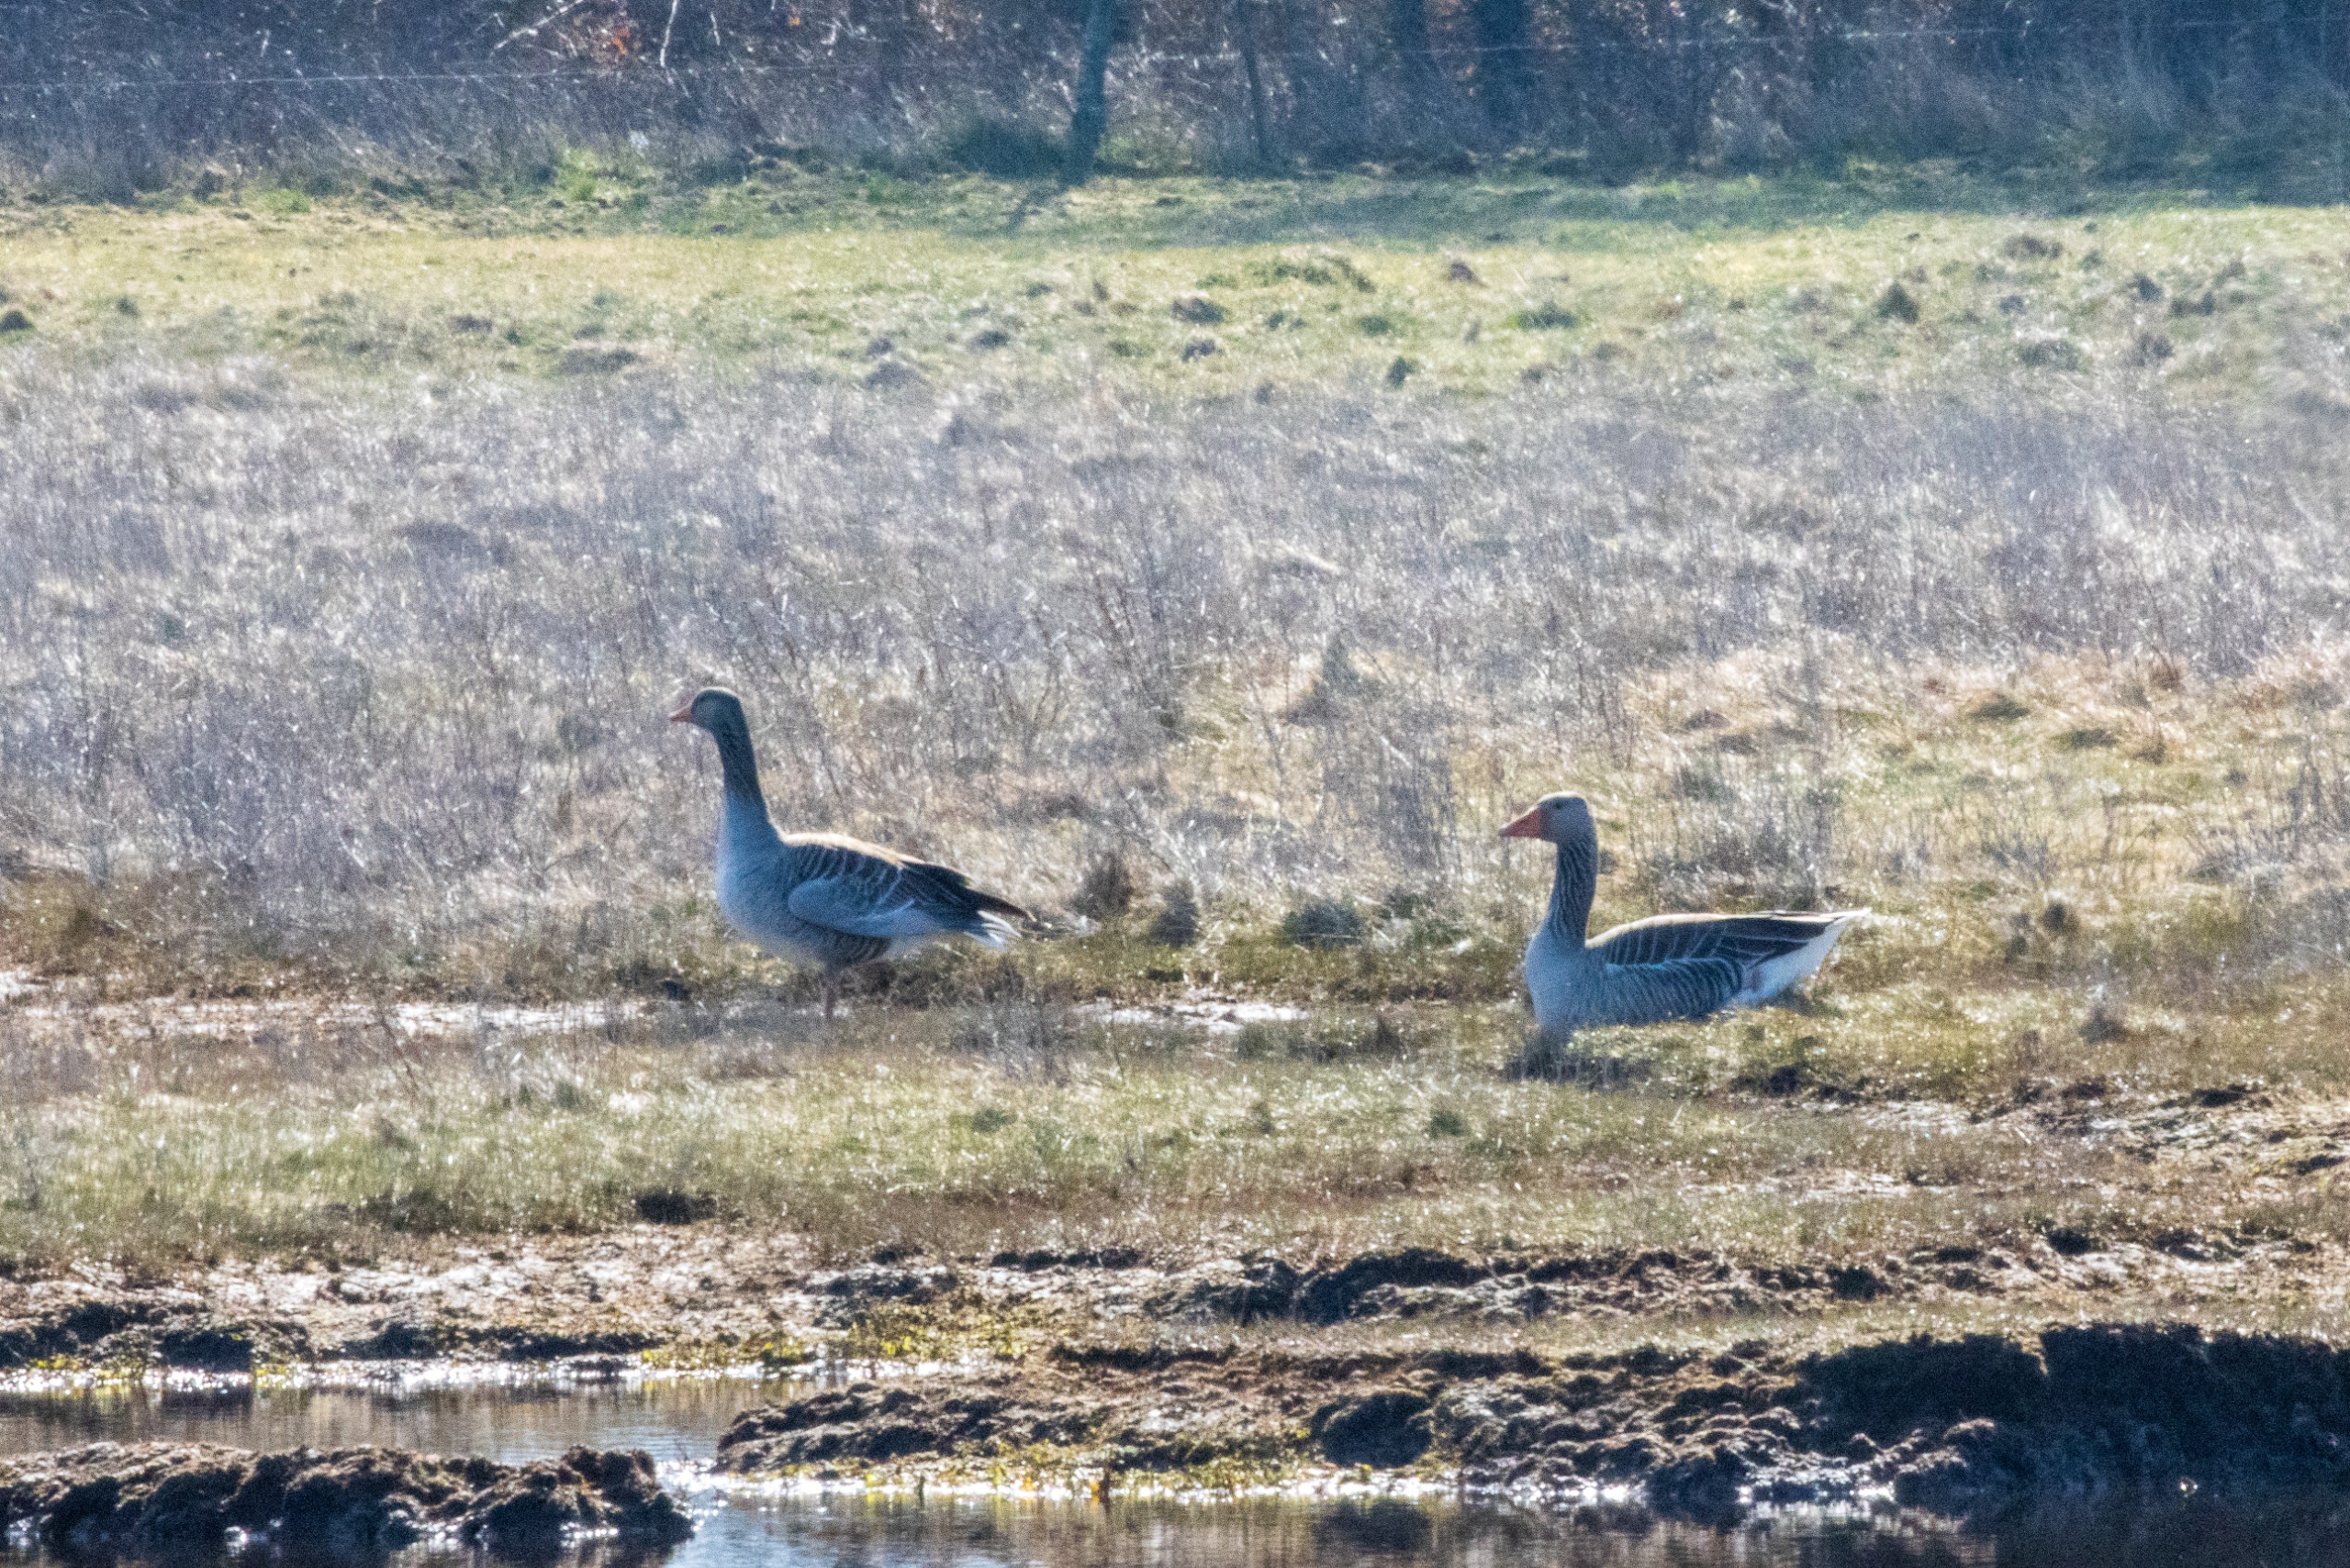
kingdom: Animalia
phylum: Chordata
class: Aves
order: Anseriformes
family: Anatidae
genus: Anser
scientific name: Anser anser
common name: Grågås
